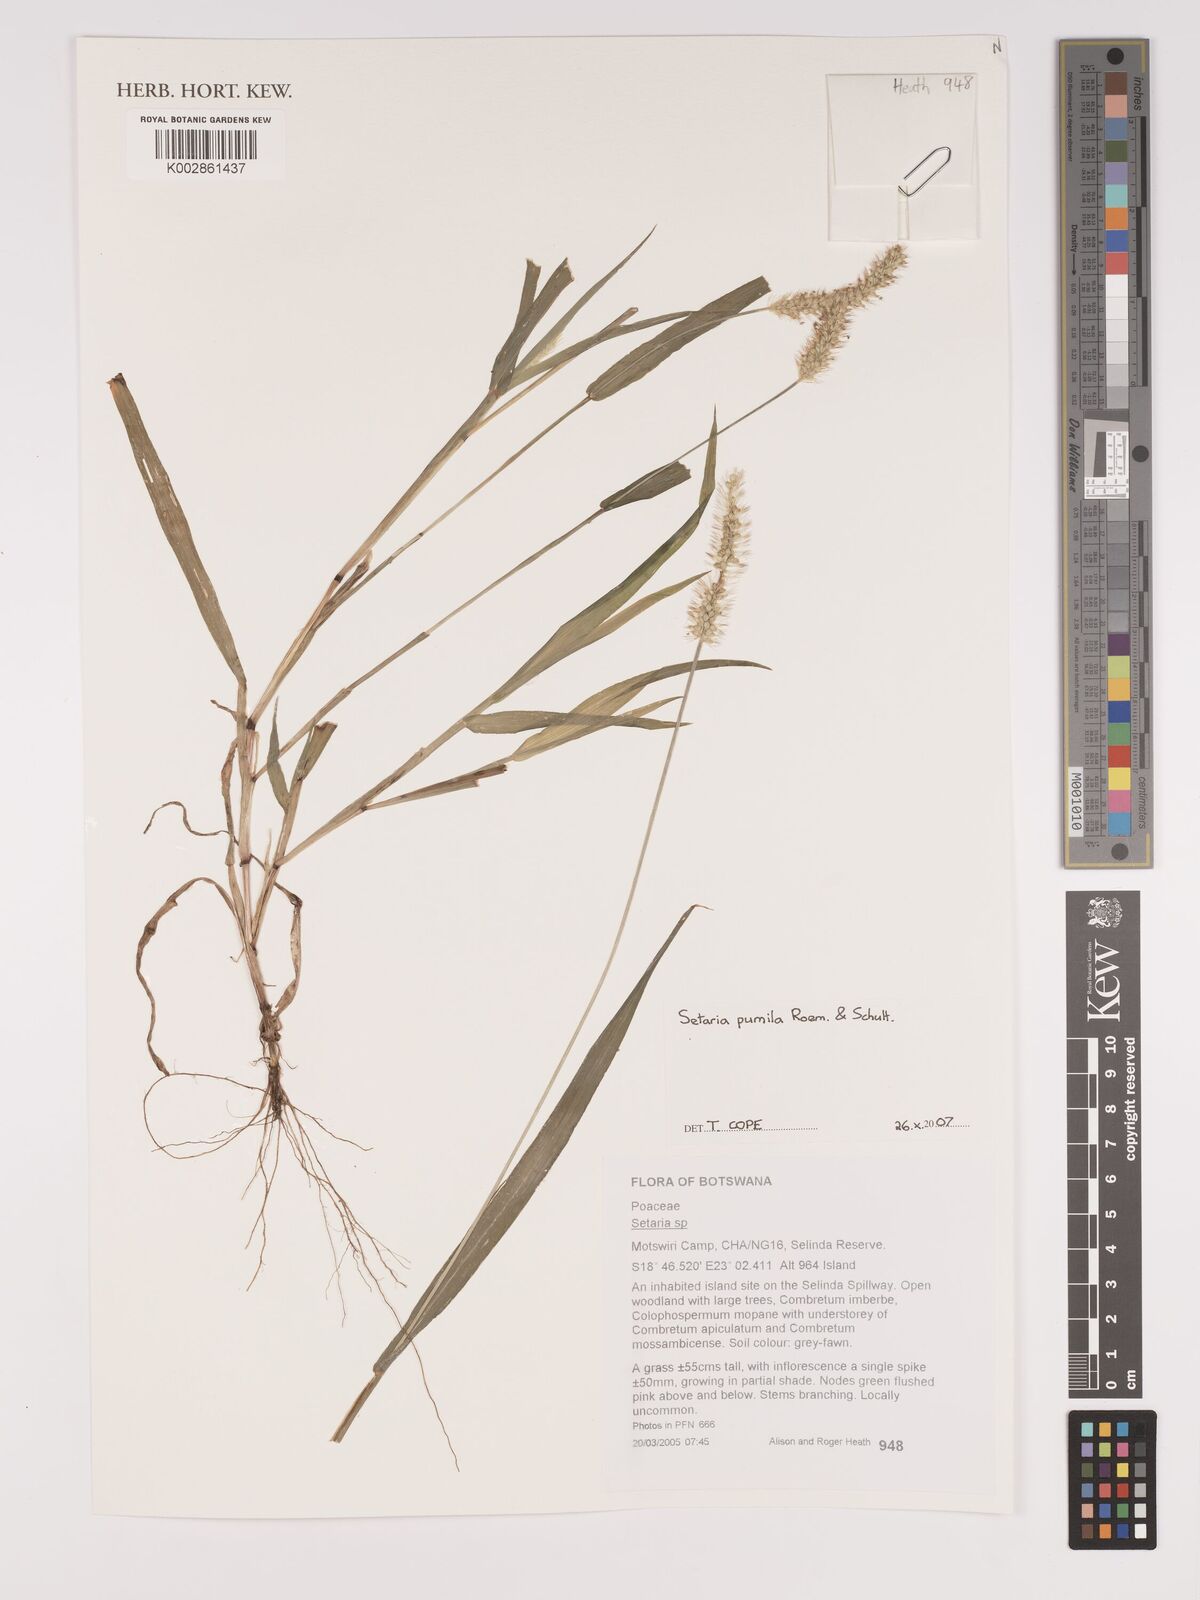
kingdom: Plantae
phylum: Tracheophyta
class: Liliopsida
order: Poales
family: Poaceae
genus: Setaria
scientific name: Setaria pumila
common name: Yellow bristle-grass
